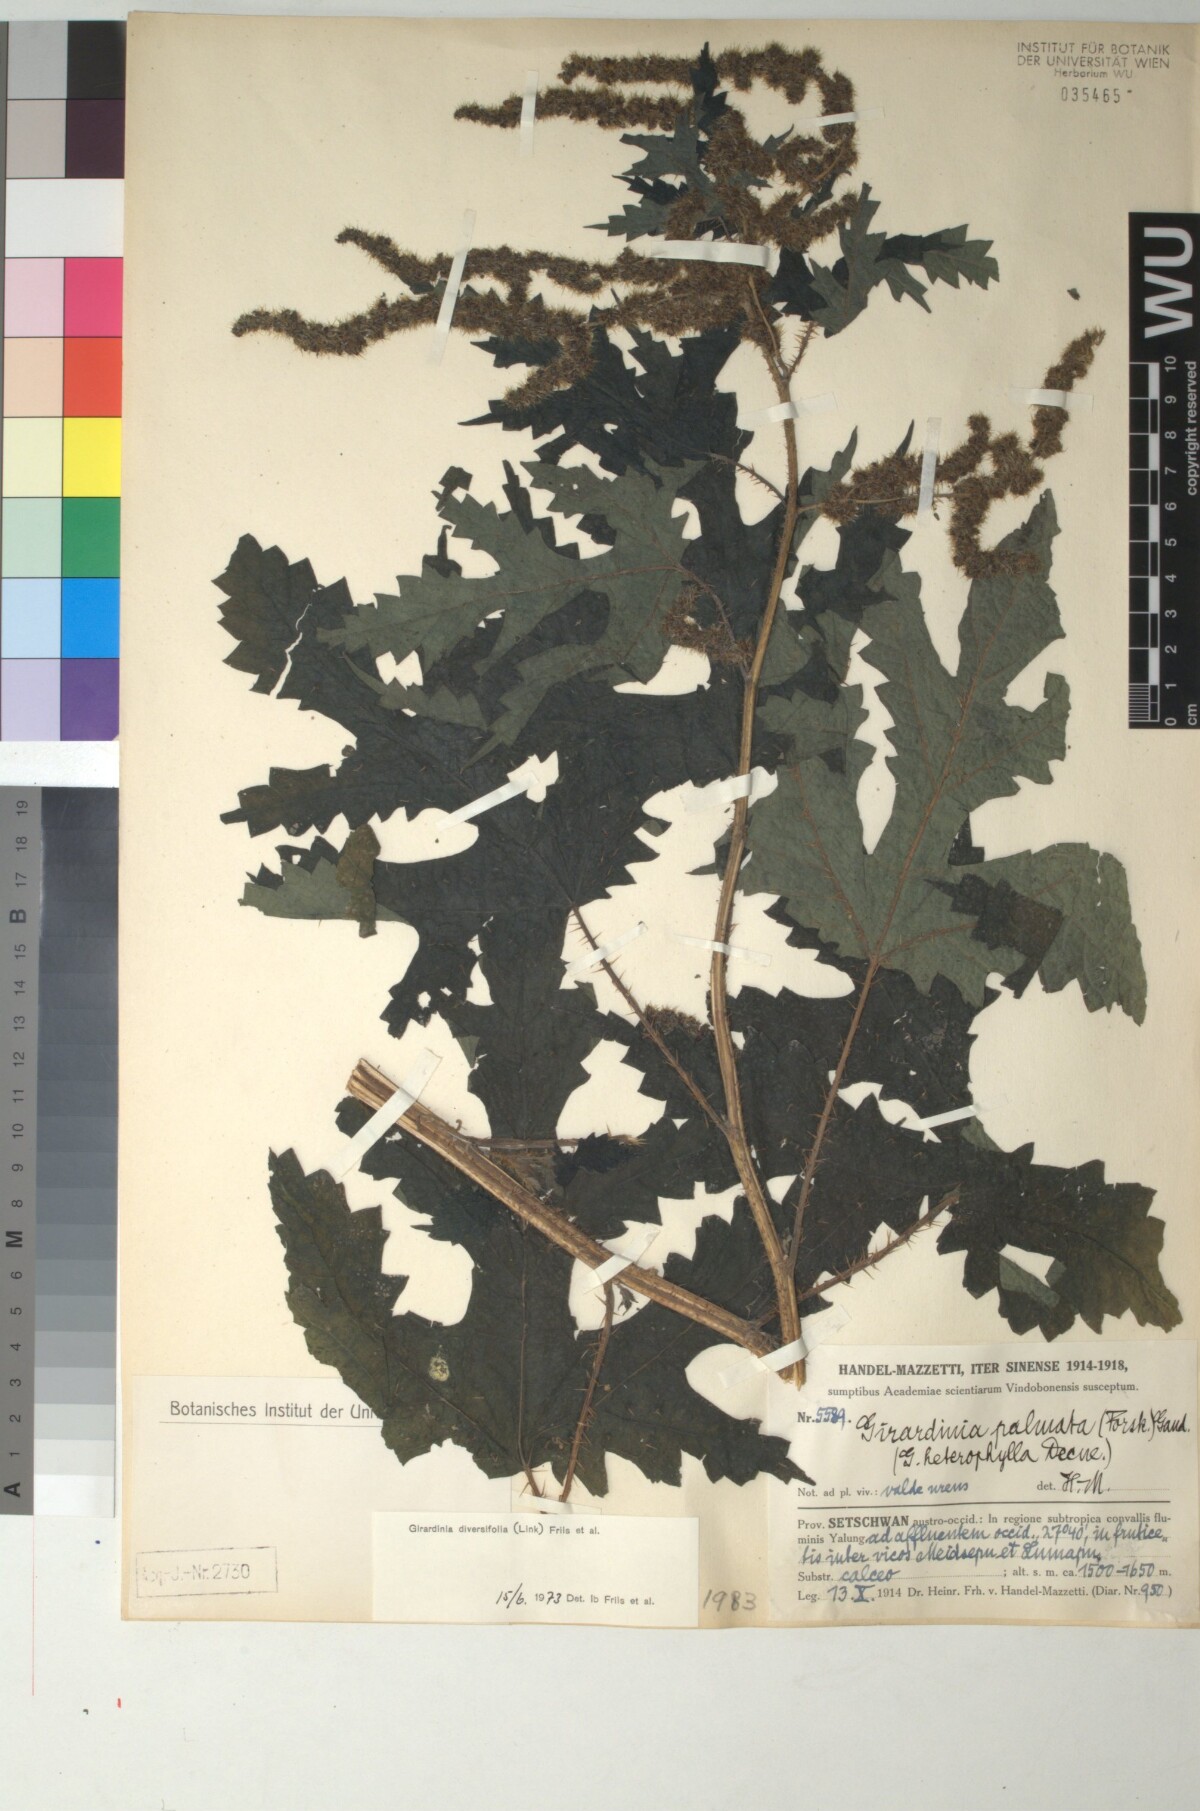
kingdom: Plantae
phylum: Tracheophyta
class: Magnoliopsida
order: Rosales
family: Urticaceae
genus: Girardinia
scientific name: Girardinia diversifolia
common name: Himalayan-nettle
